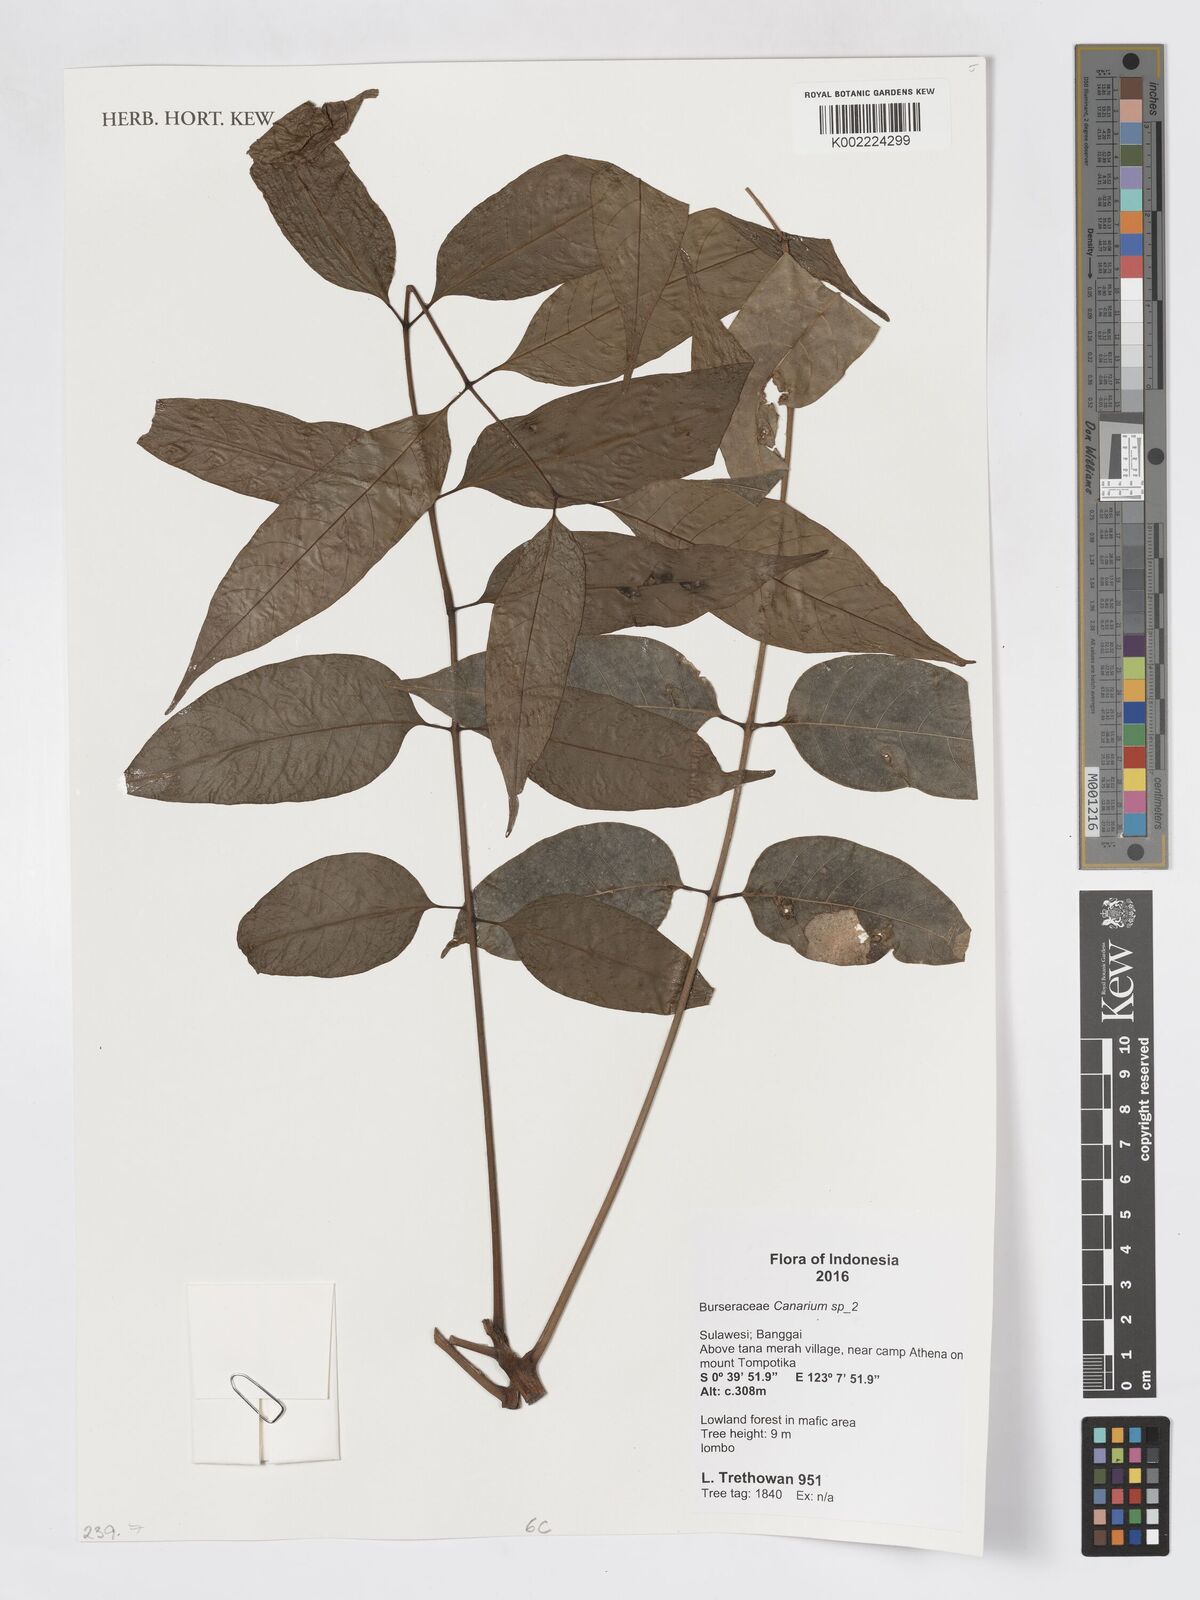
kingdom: Plantae
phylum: Tracheophyta
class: Magnoliopsida
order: Sapindales
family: Burseraceae
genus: Canarium
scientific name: Canarium
